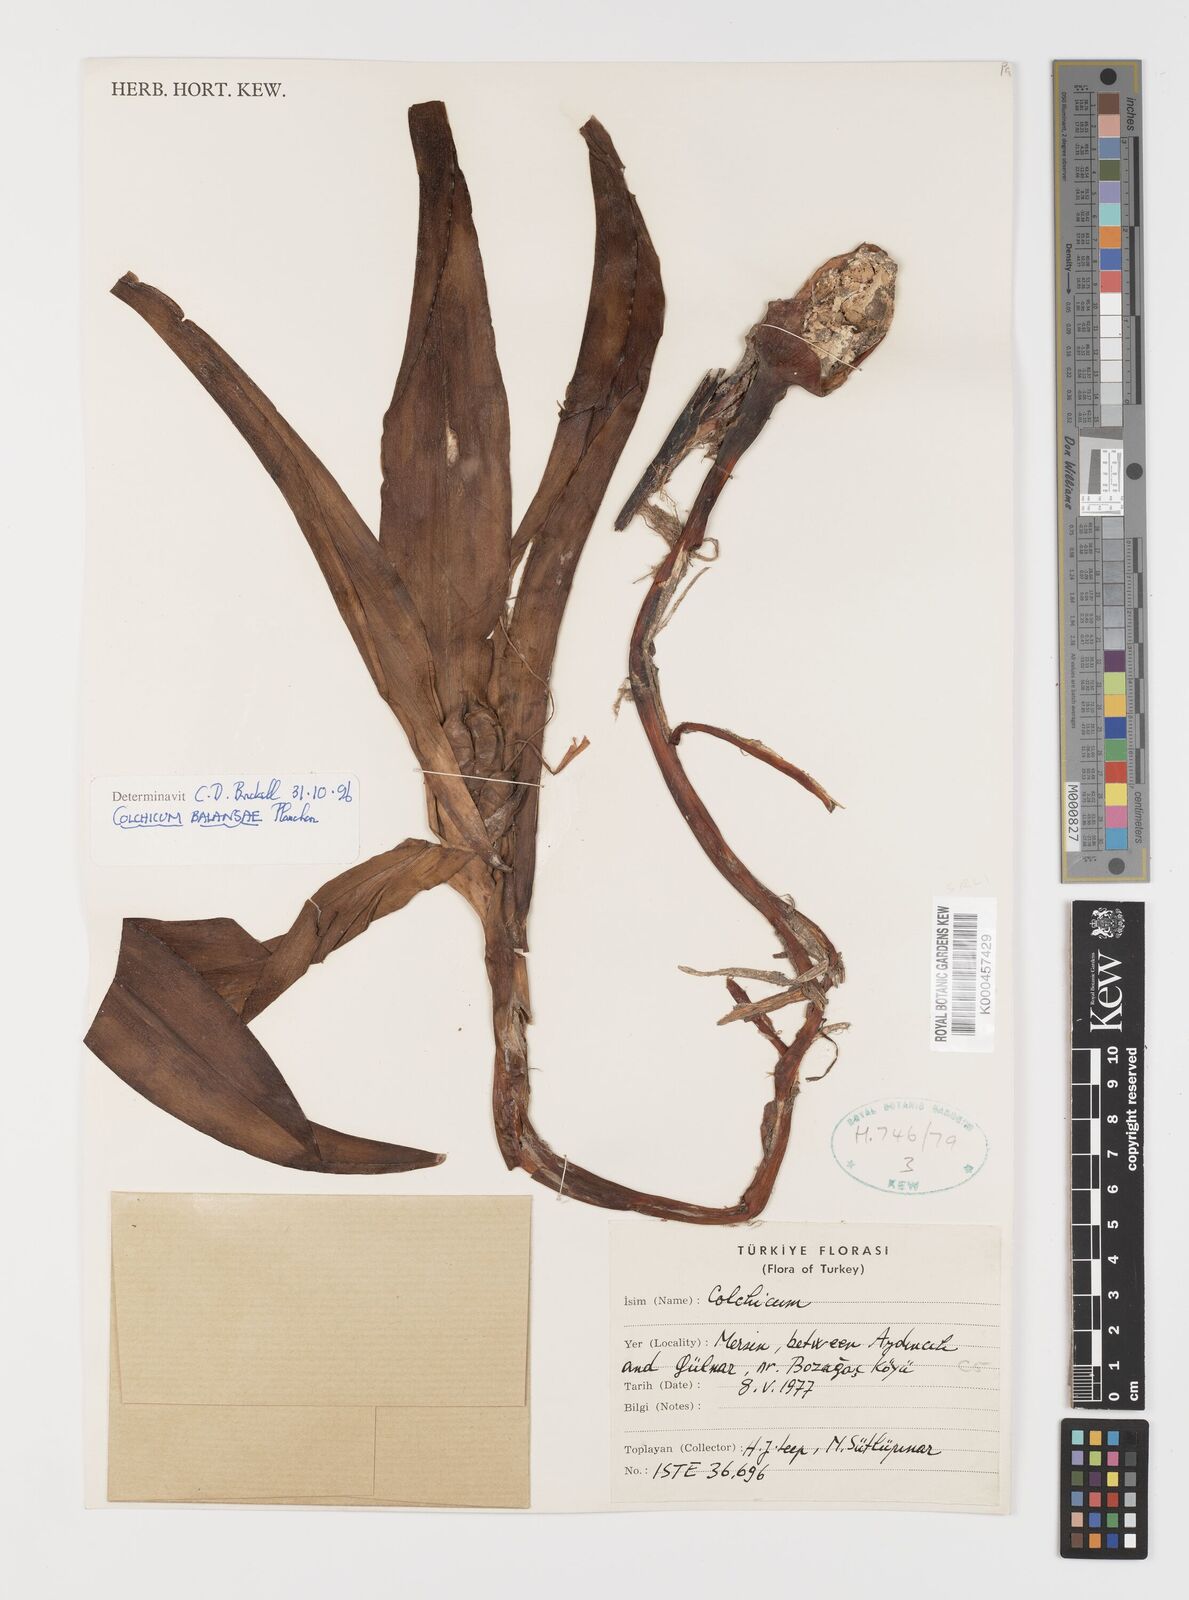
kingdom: Plantae
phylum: Tracheophyta
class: Liliopsida
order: Liliales
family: Colchicaceae
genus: Colchicum
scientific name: Colchicum balansae
